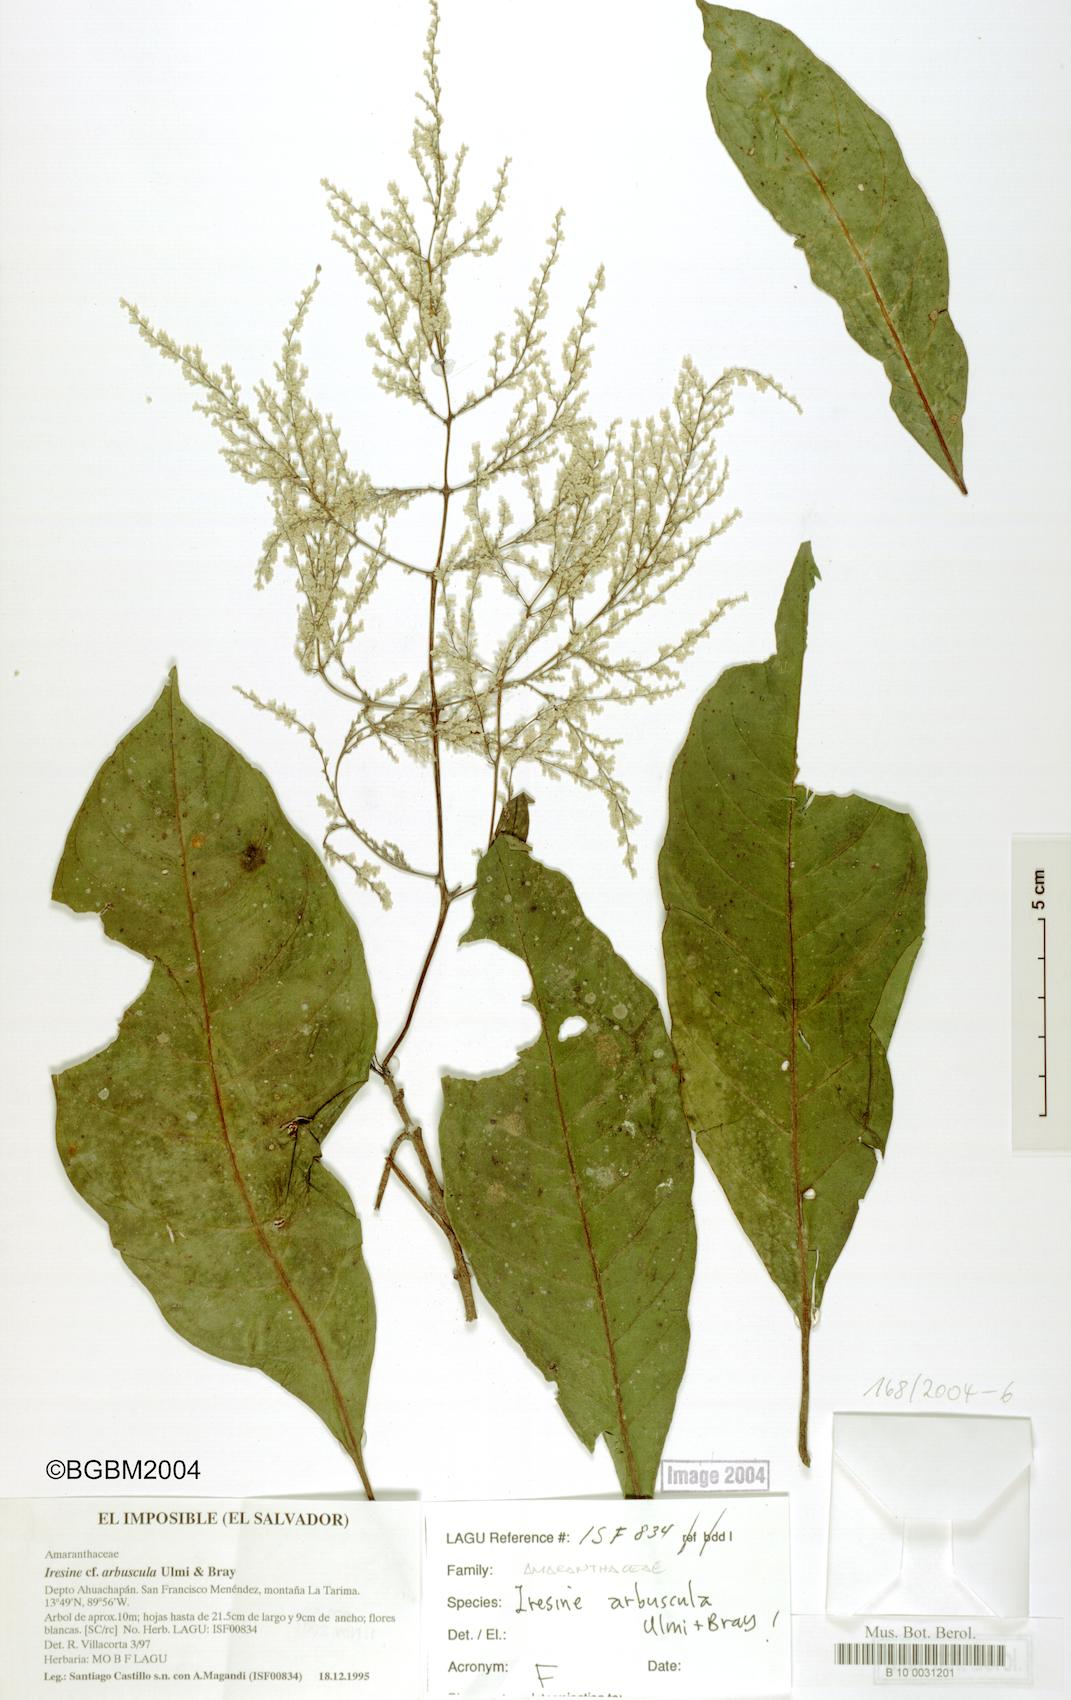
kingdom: Plantae
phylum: Tracheophyta
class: Magnoliopsida
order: Caryophyllales
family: Amaranthaceae
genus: Iresine
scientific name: Iresine arbuscula
